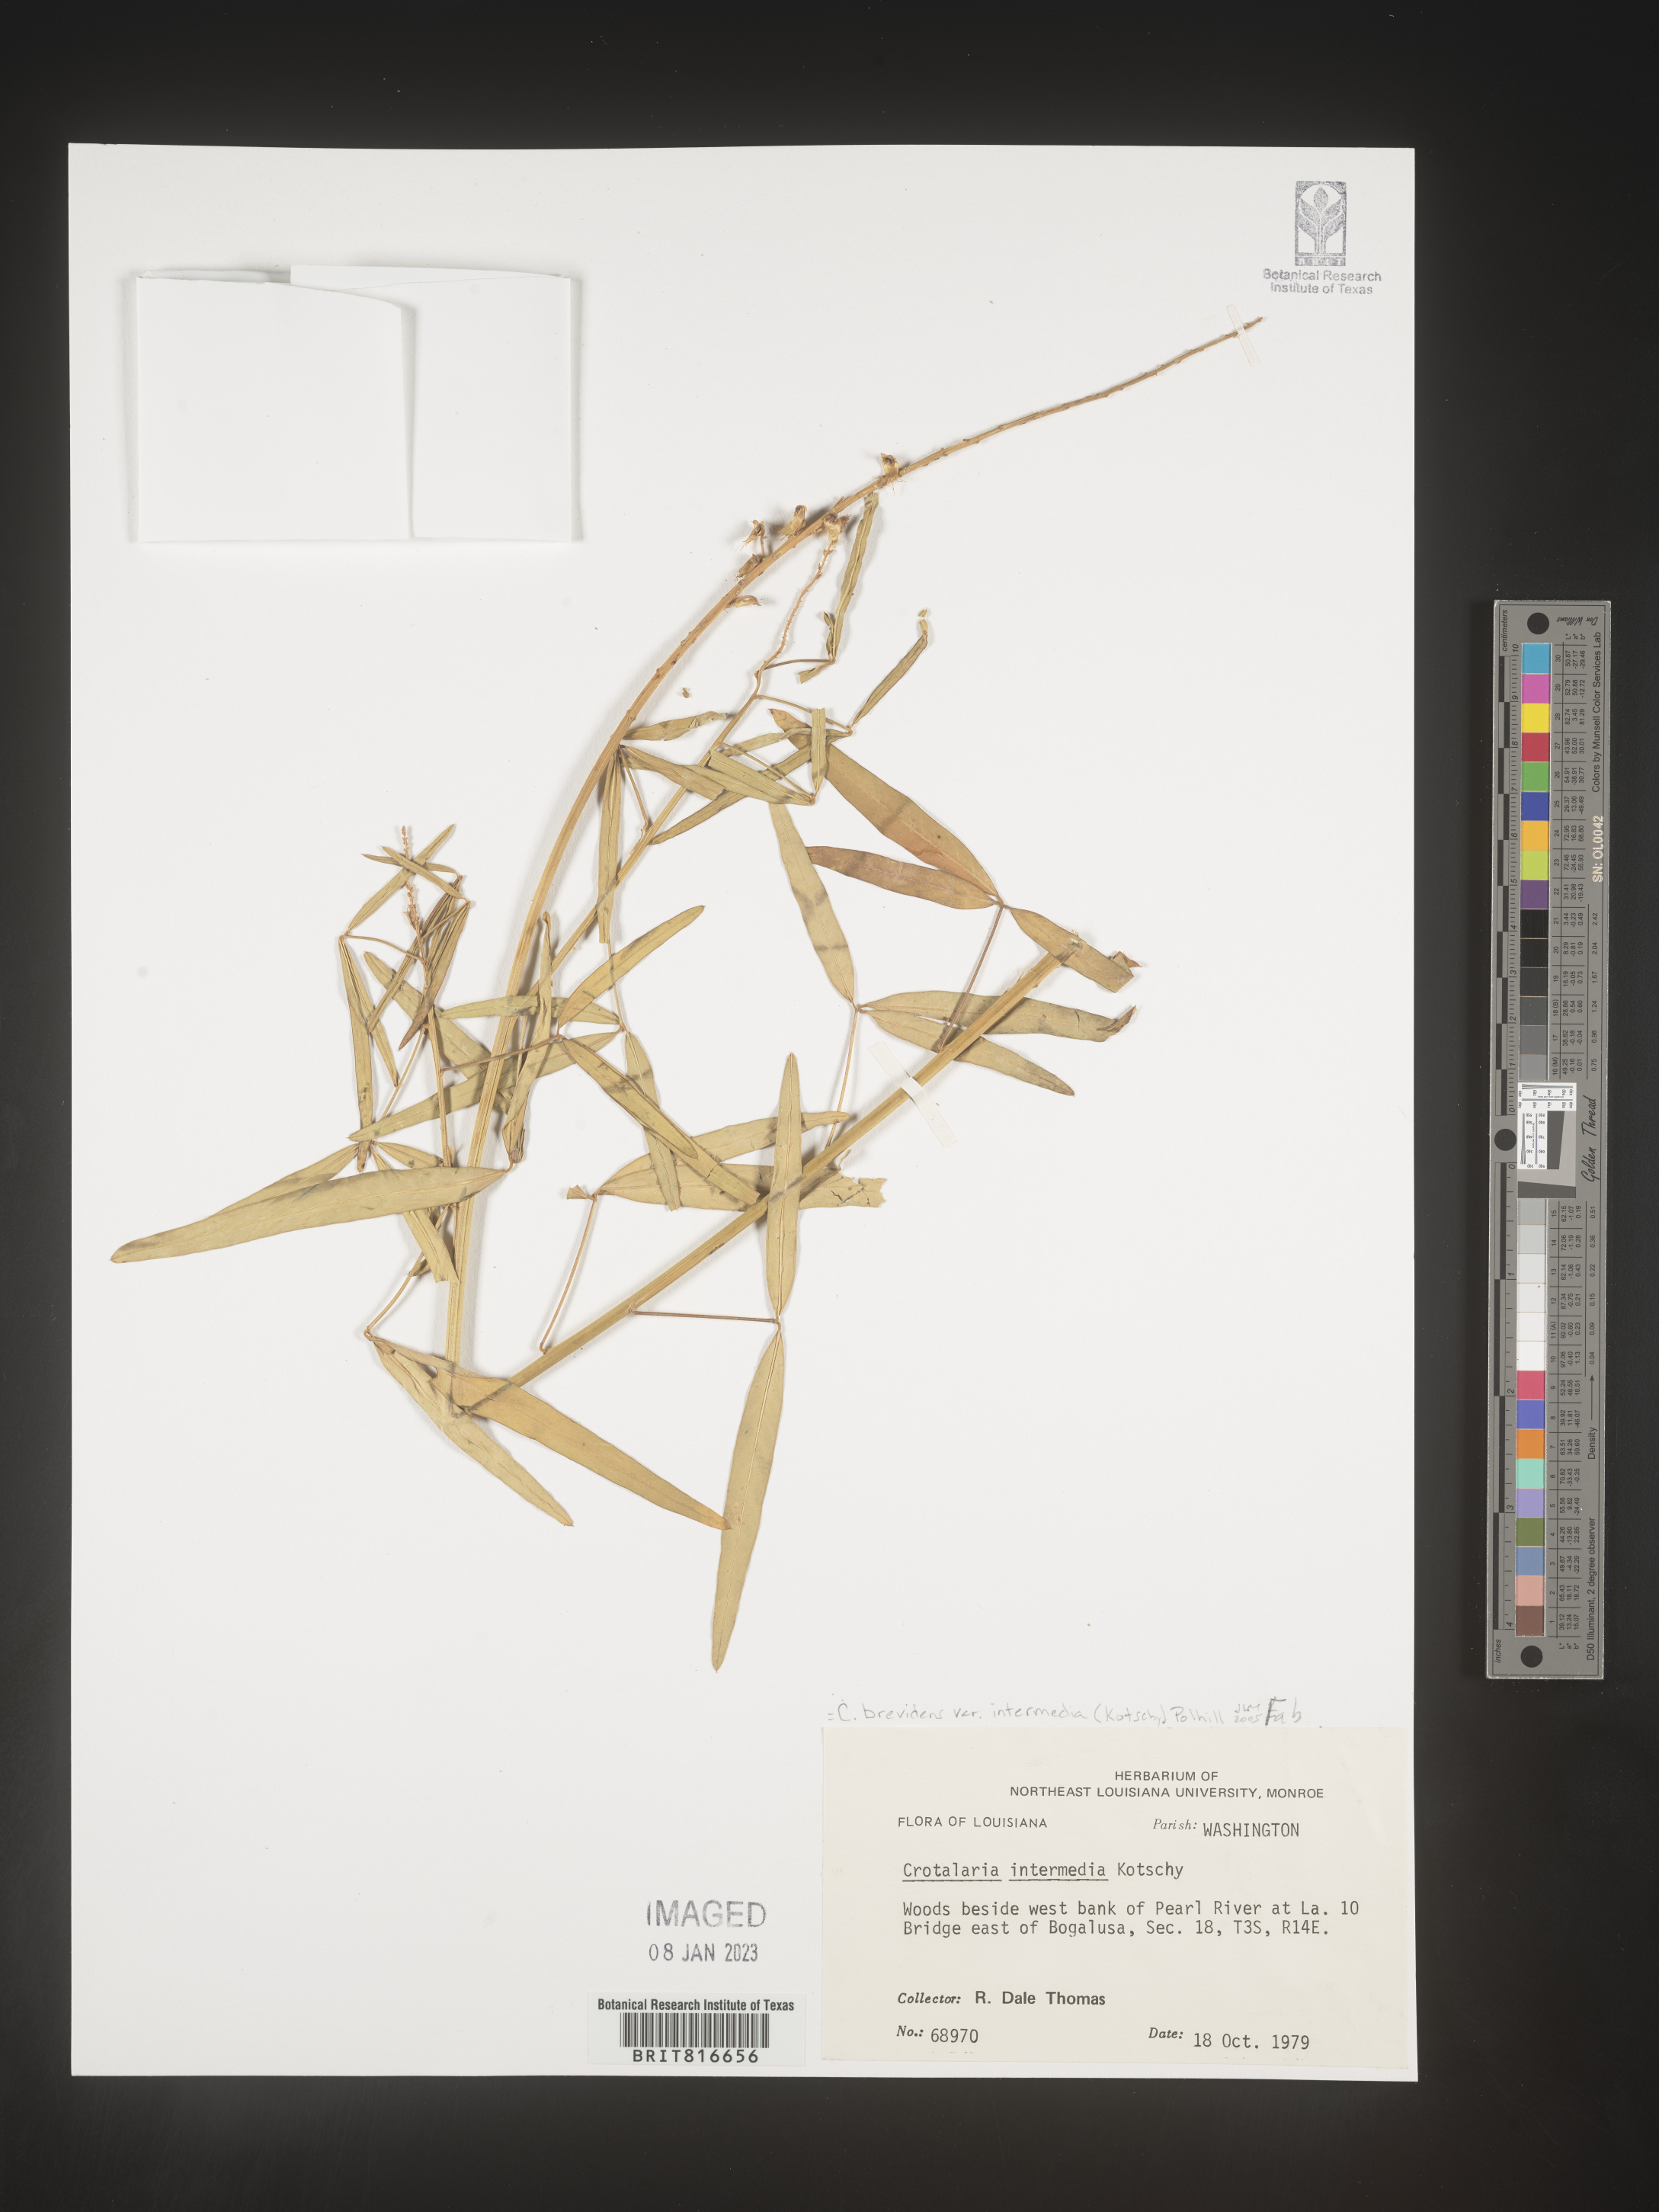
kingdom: Plantae
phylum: Tracheophyta
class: Magnoliopsida
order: Fabales
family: Fabaceae
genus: Crotalaria
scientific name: Crotalaria
